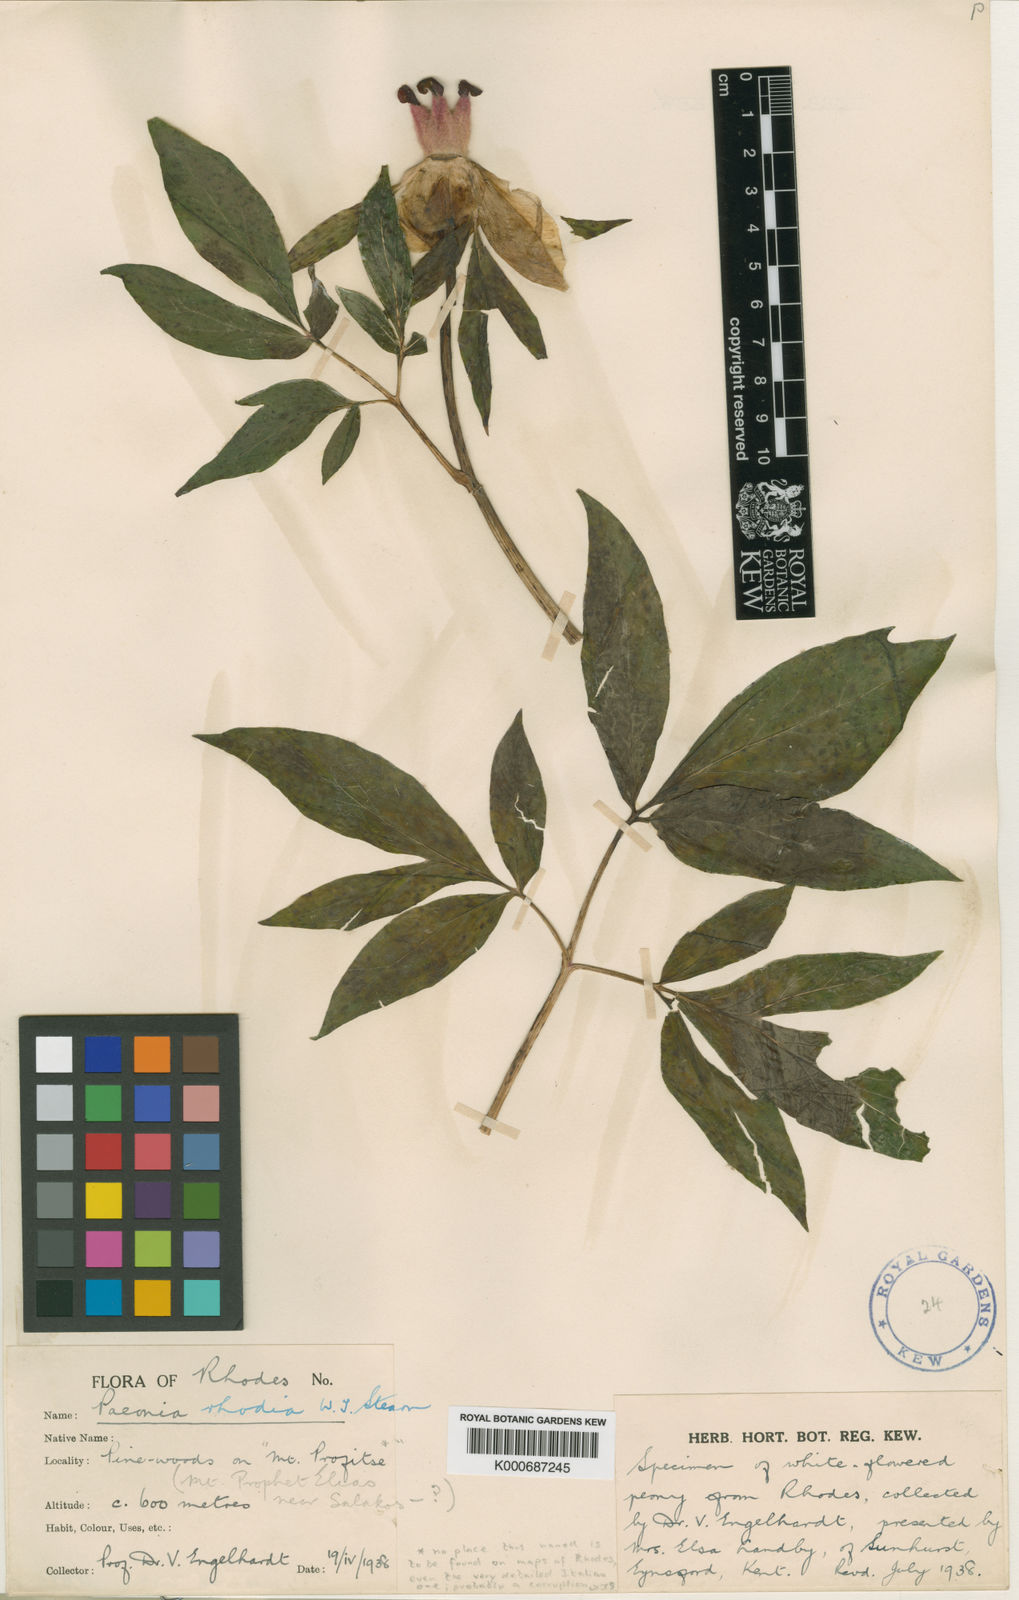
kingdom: Plantae
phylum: Tracheophyta
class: Magnoliopsida
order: Saxifragales
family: Paeoniaceae
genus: Paeonia
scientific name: Paeonia clusii
